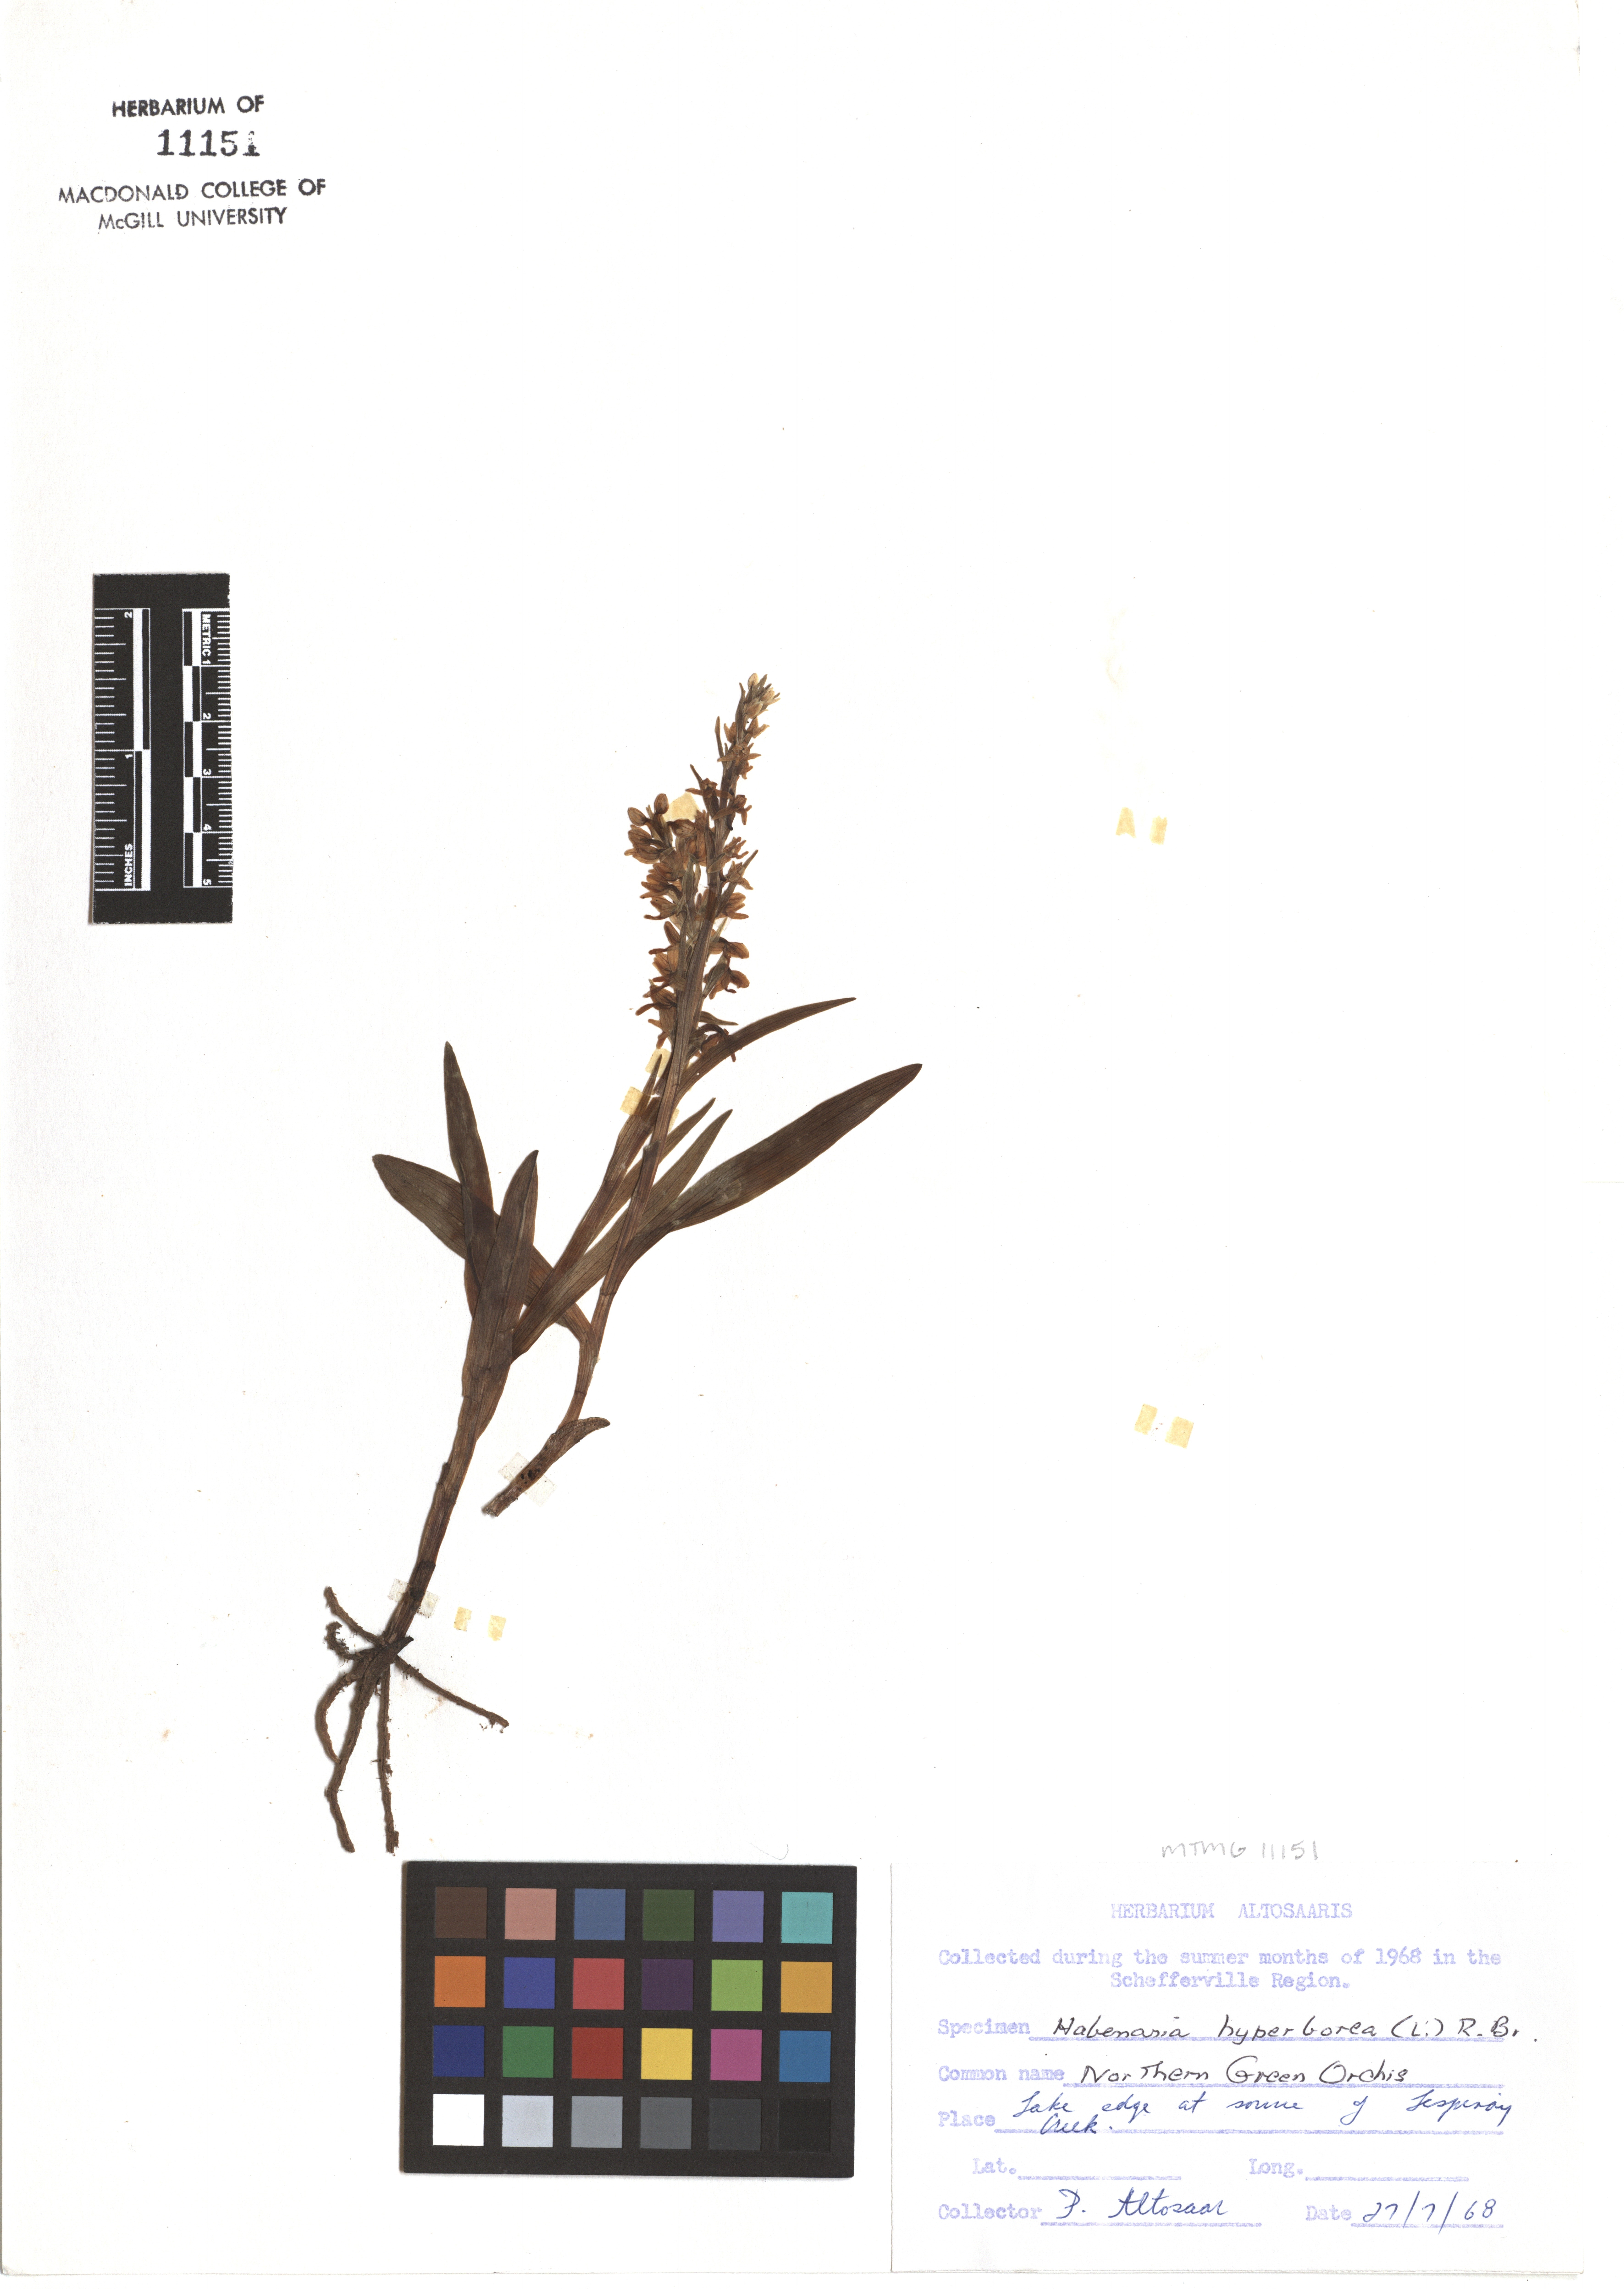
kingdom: Plantae
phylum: Tracheophyta
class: Liliopsida
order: Asparagales
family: Orchidaceae
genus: Platanthera
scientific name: Platanthera hyperborea
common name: Northern green orchid
